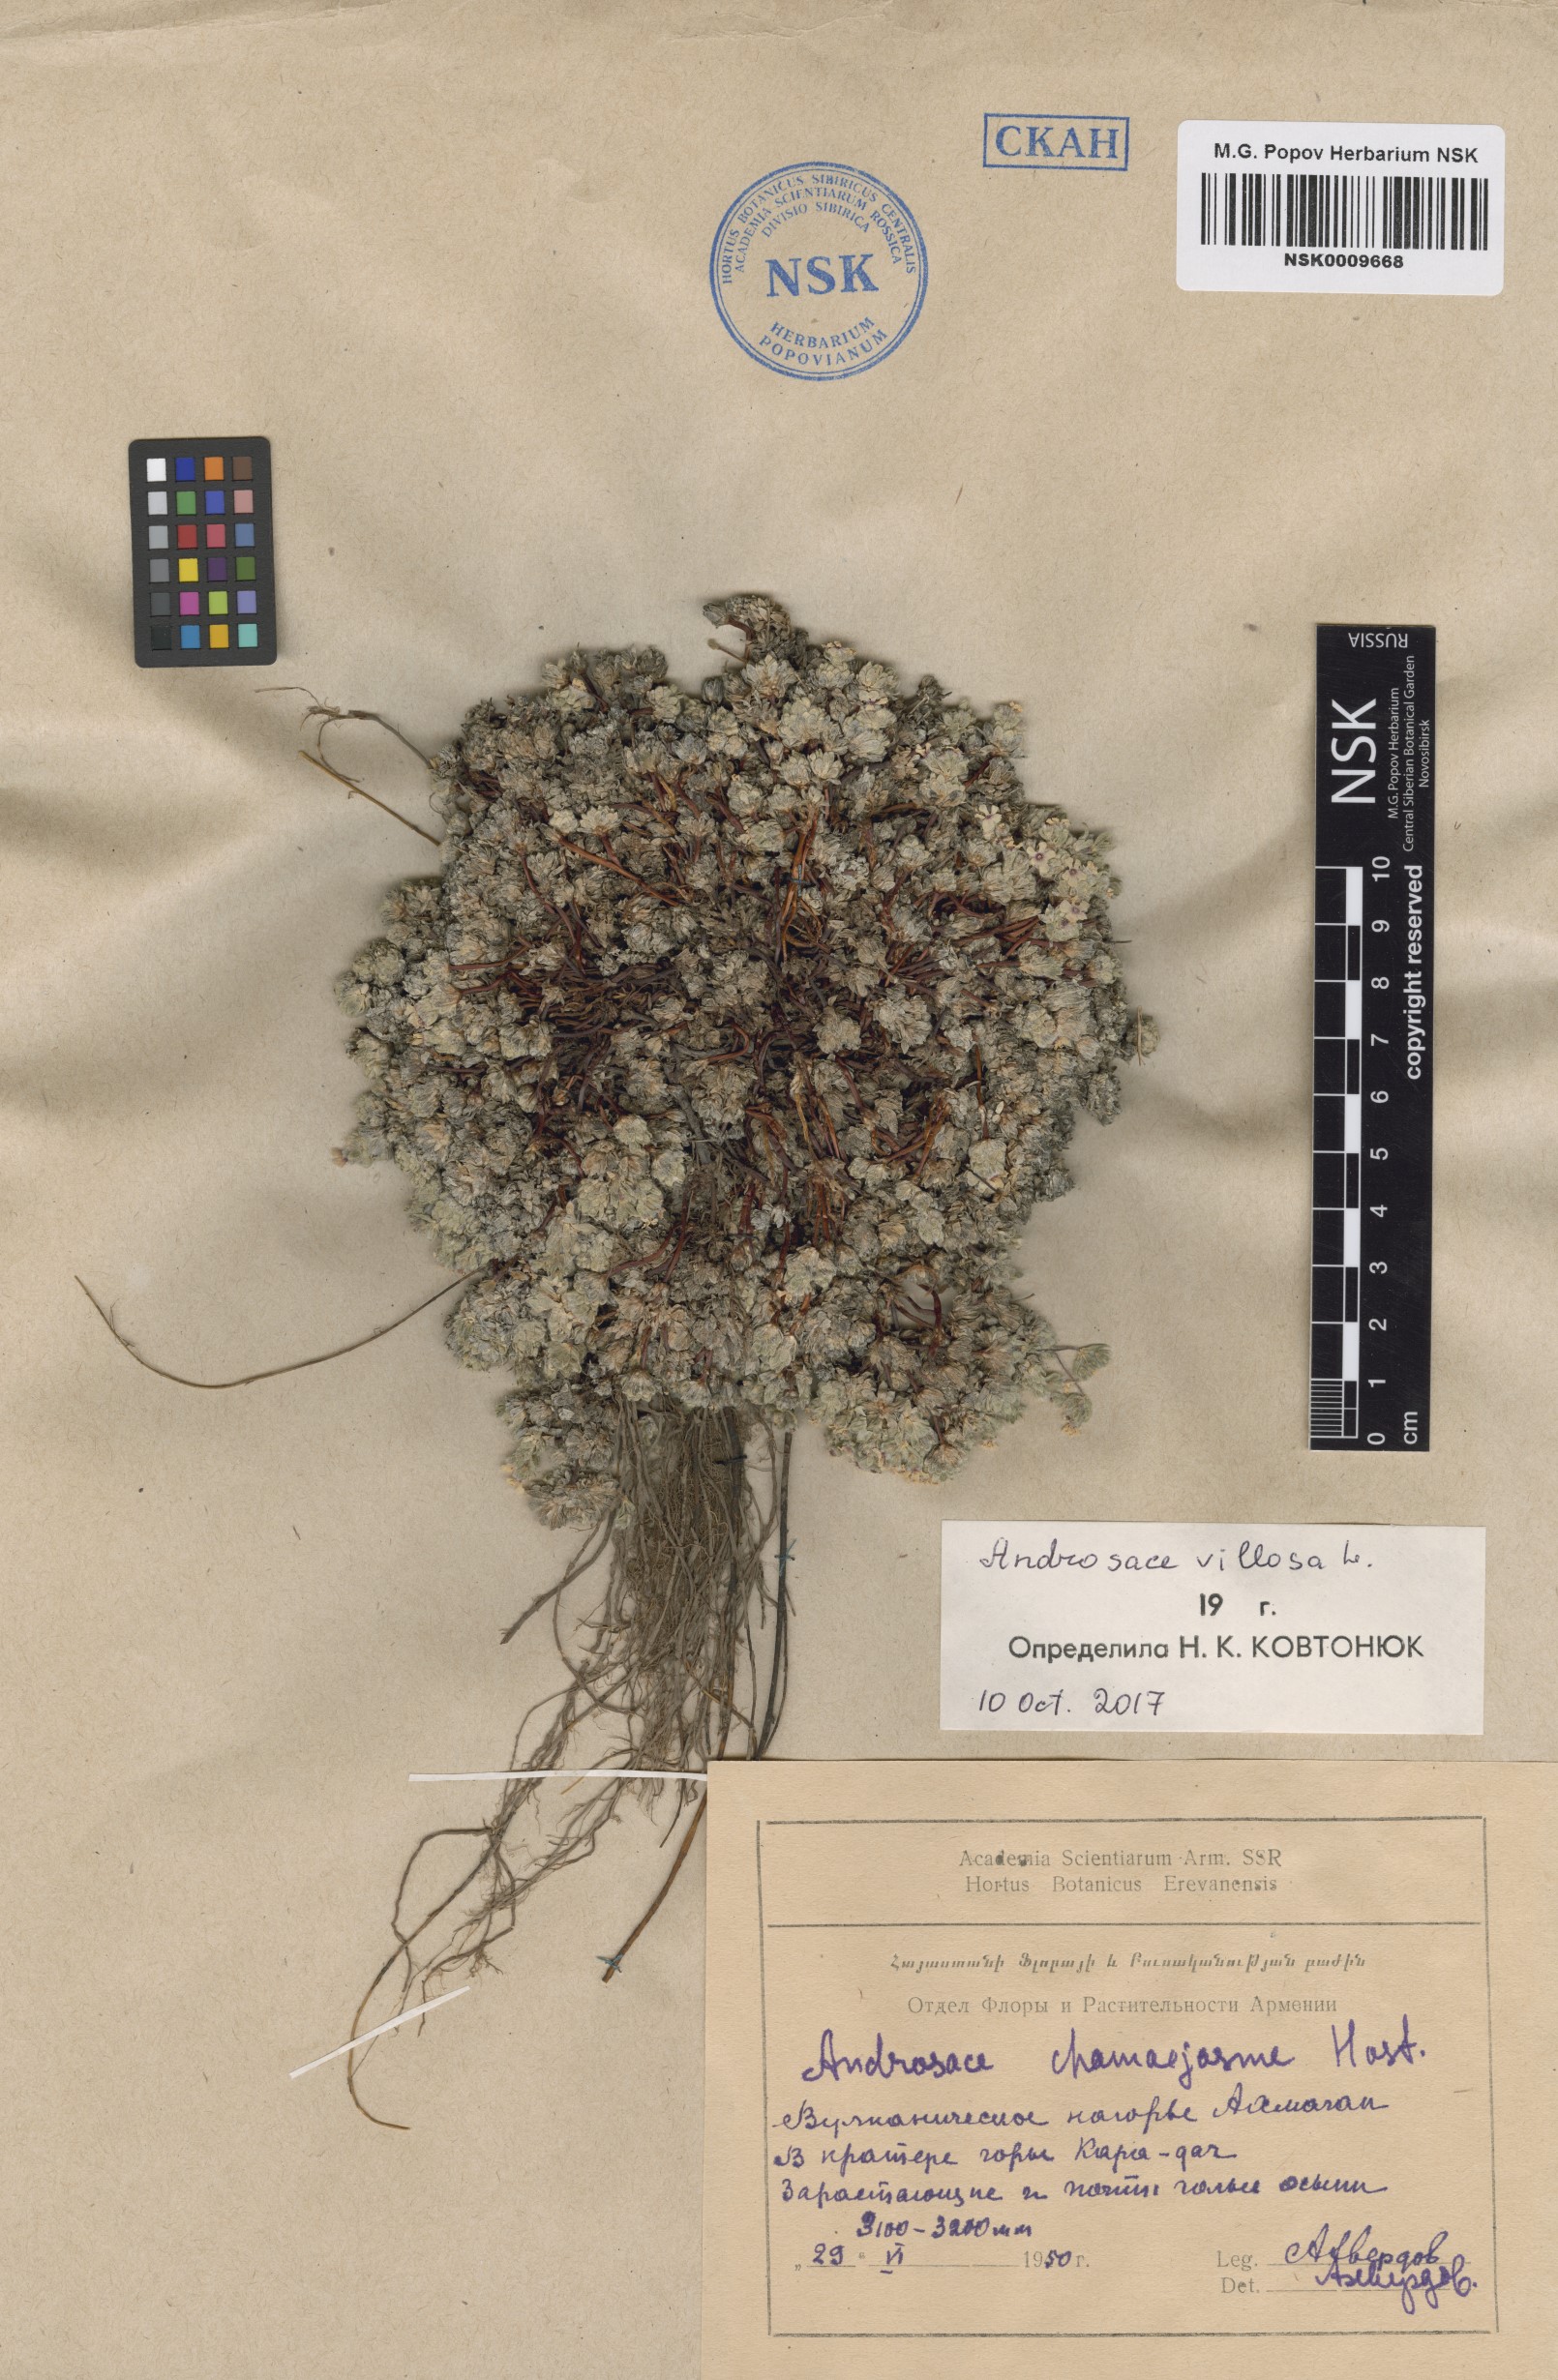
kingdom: Plantae
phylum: Tracheophyta
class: Magnoliopsida
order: Ericales
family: Primulaceae
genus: Androsace
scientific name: Androsace villosa
